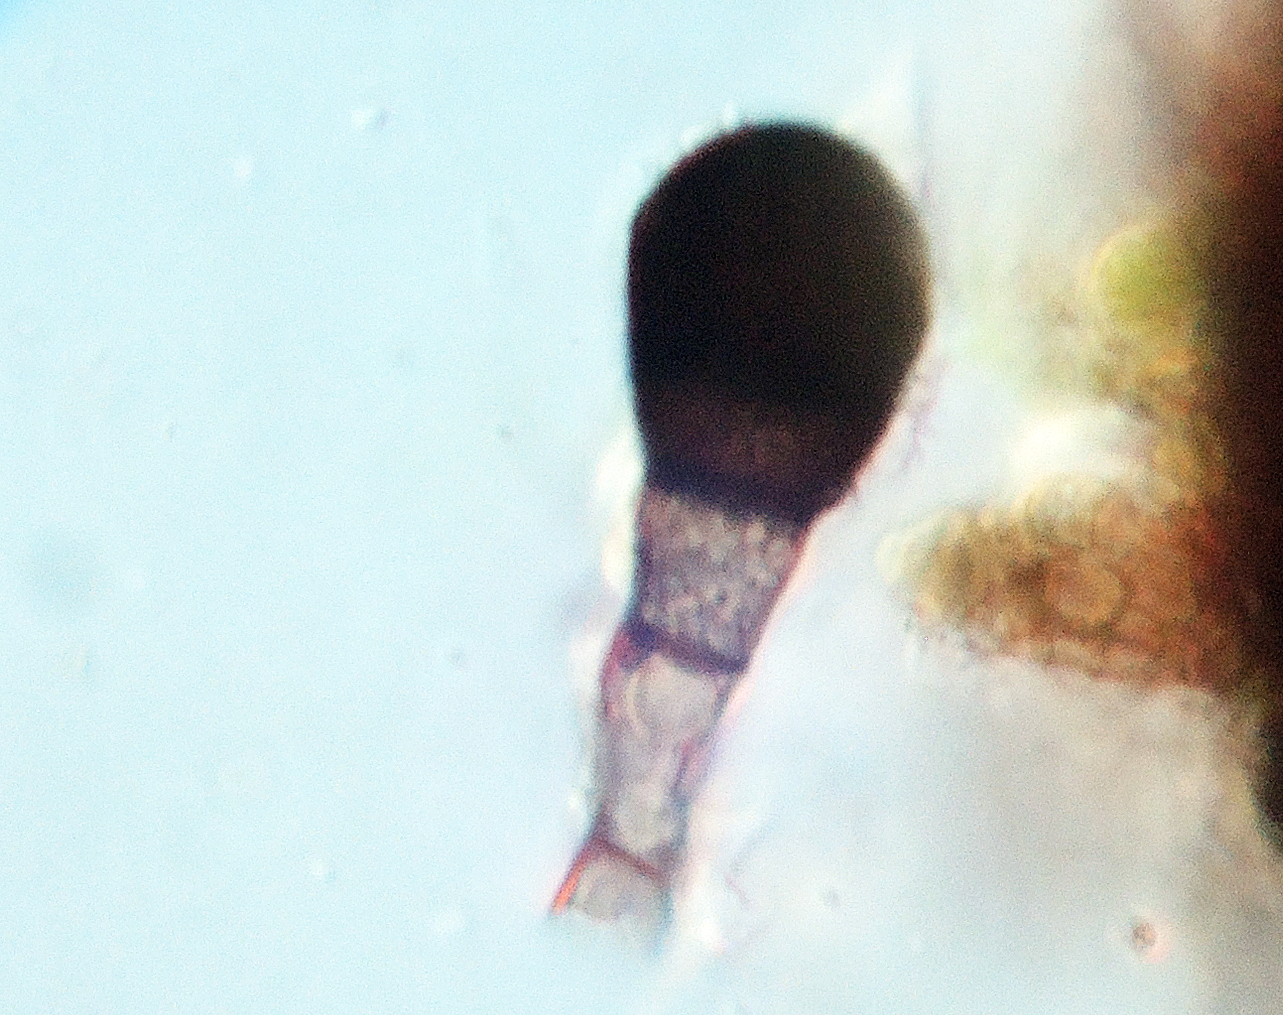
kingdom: Fungi
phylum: Ascomycota
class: Sordariomycetes
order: Sordariales
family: Helminthosphaeriaceae
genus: Endophragmiella
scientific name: Endophragmiella biseptata
